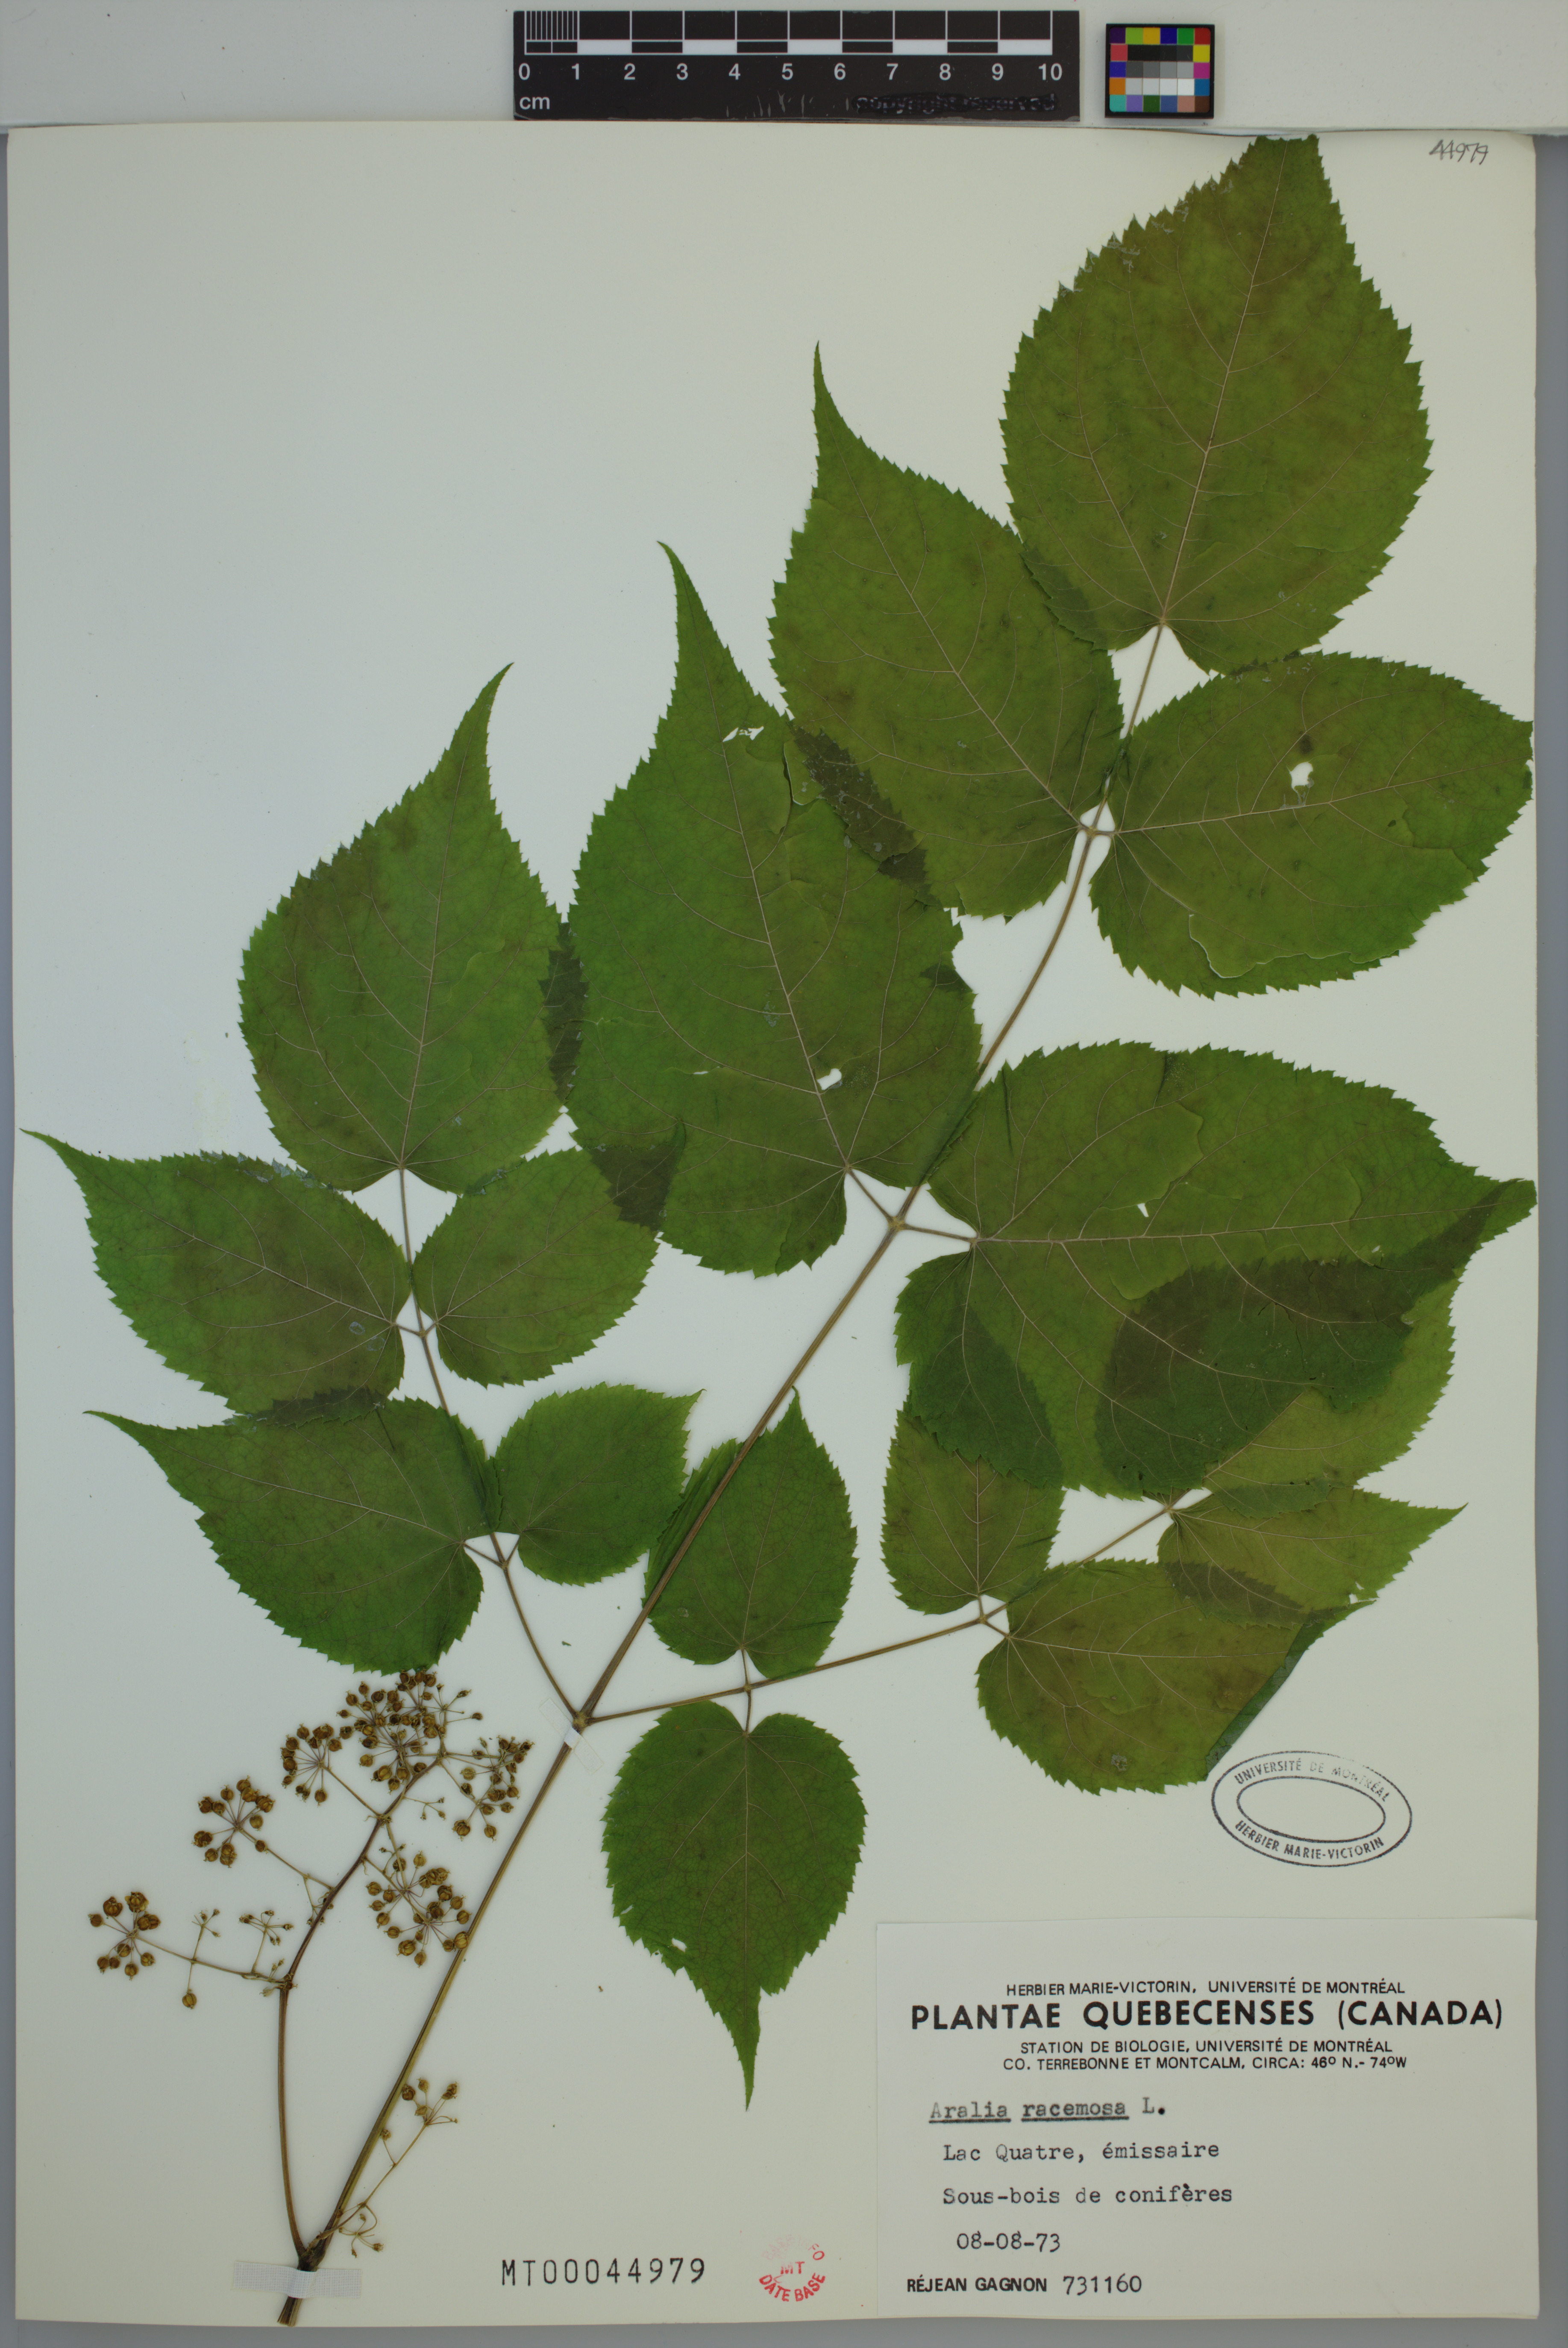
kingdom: Plantae
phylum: Tracheophyta
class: Magnoliopsida
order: Apiales
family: Araliaceae
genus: Aralia
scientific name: Aralia racemosa
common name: American-spikenard
